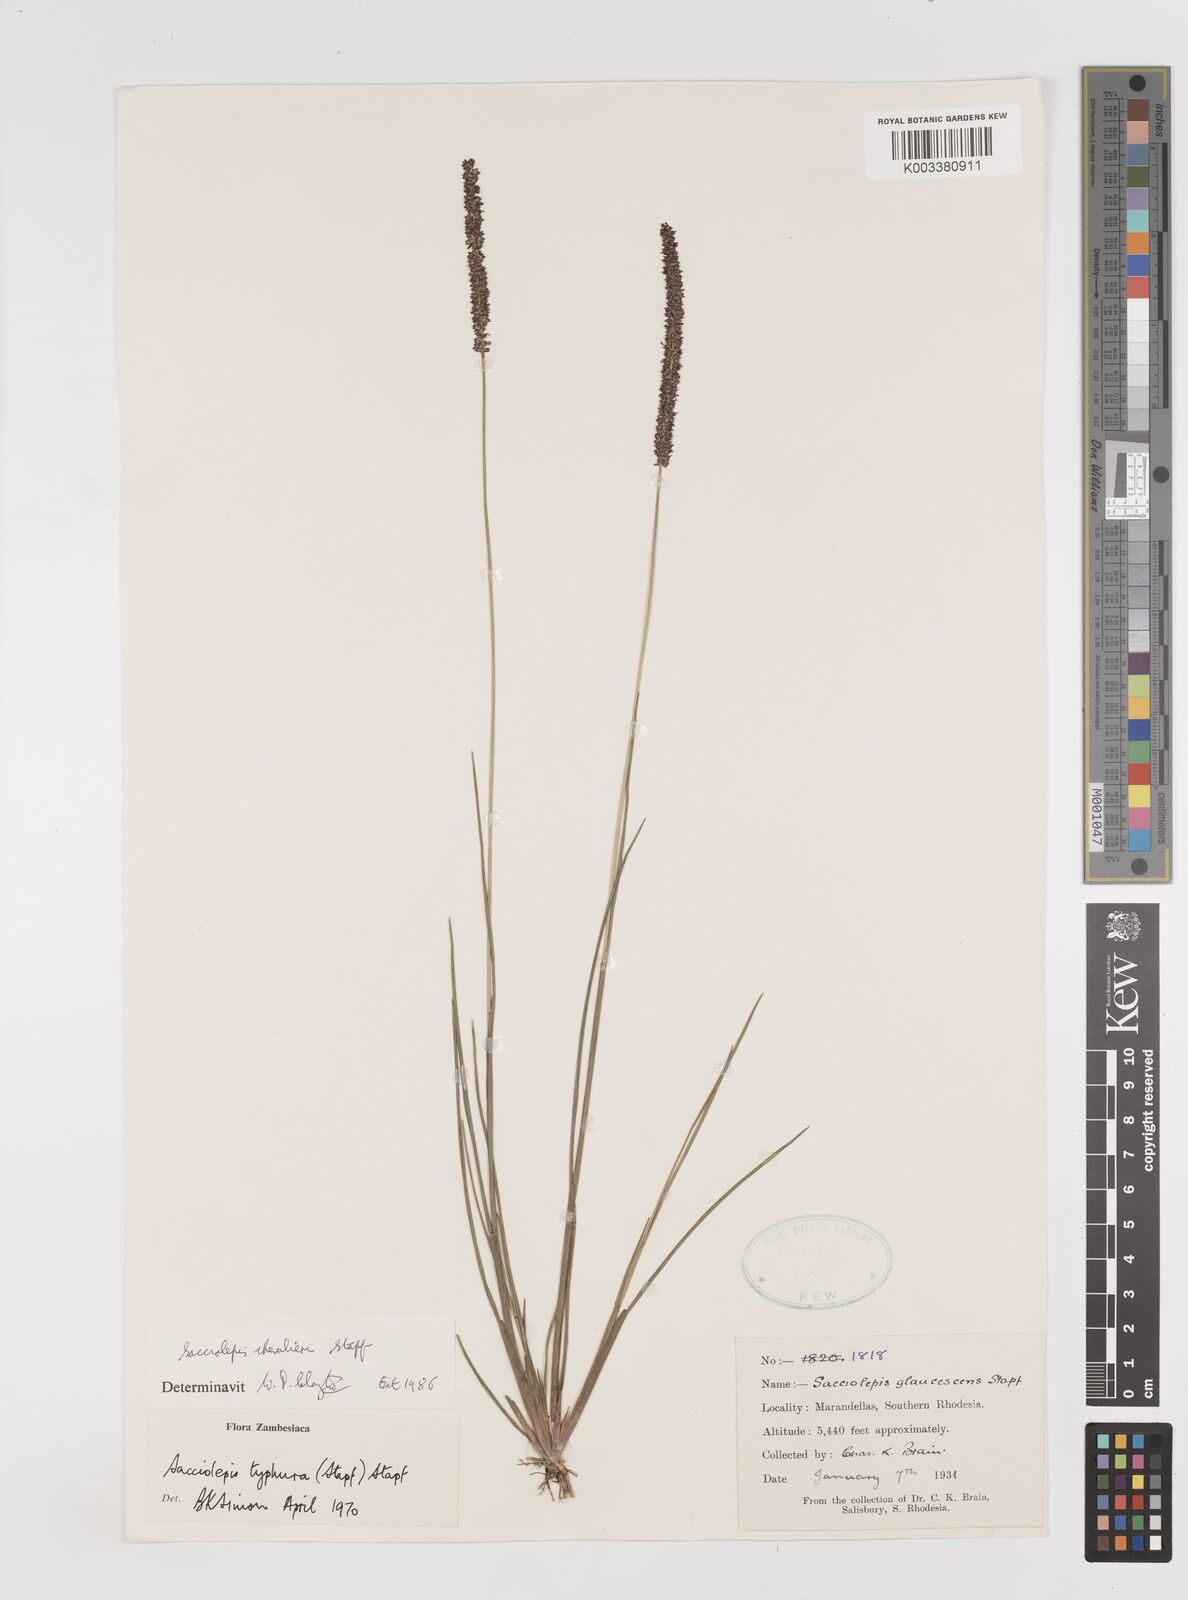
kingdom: Plantae
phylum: Tracheophyta
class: Liliopsida
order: Poales
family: Poaceae
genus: Sacciolepis
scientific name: Sacciolepis chevalieri
